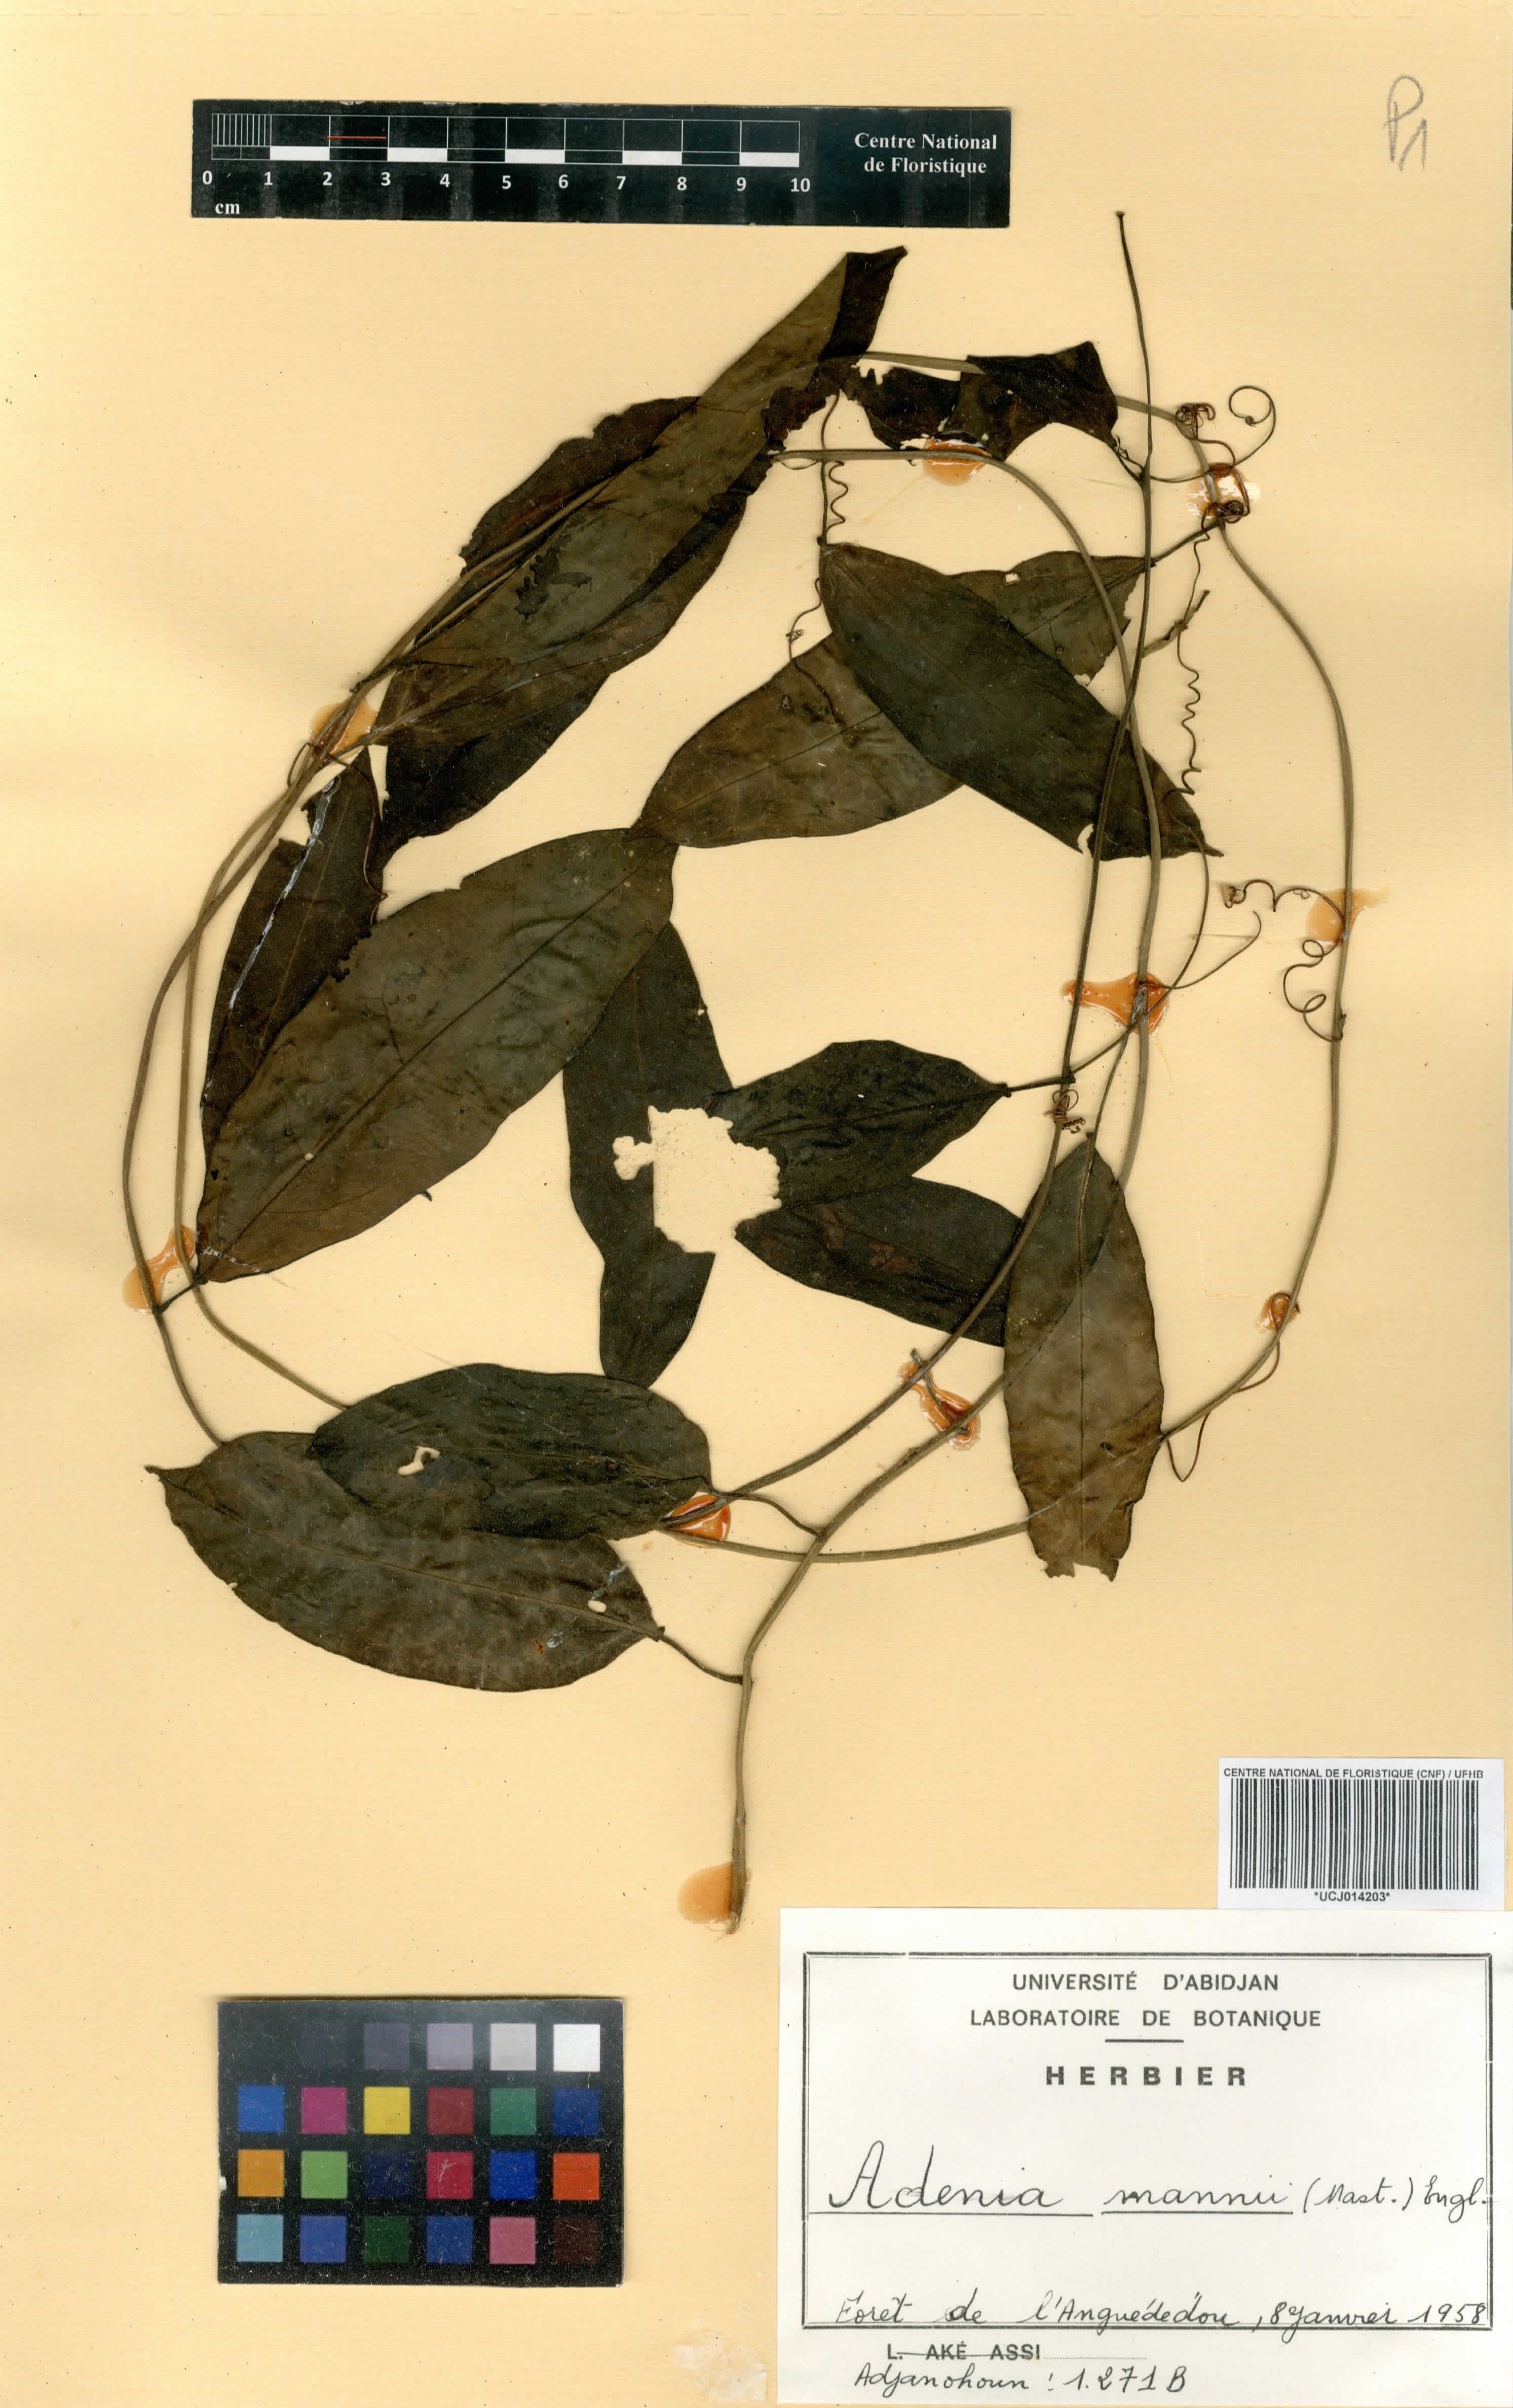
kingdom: Plantae
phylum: Tracheophyta
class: Magnoliopsida
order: Malpighiales
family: Passifloraceae
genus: Adenia
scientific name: Adenia mannii
